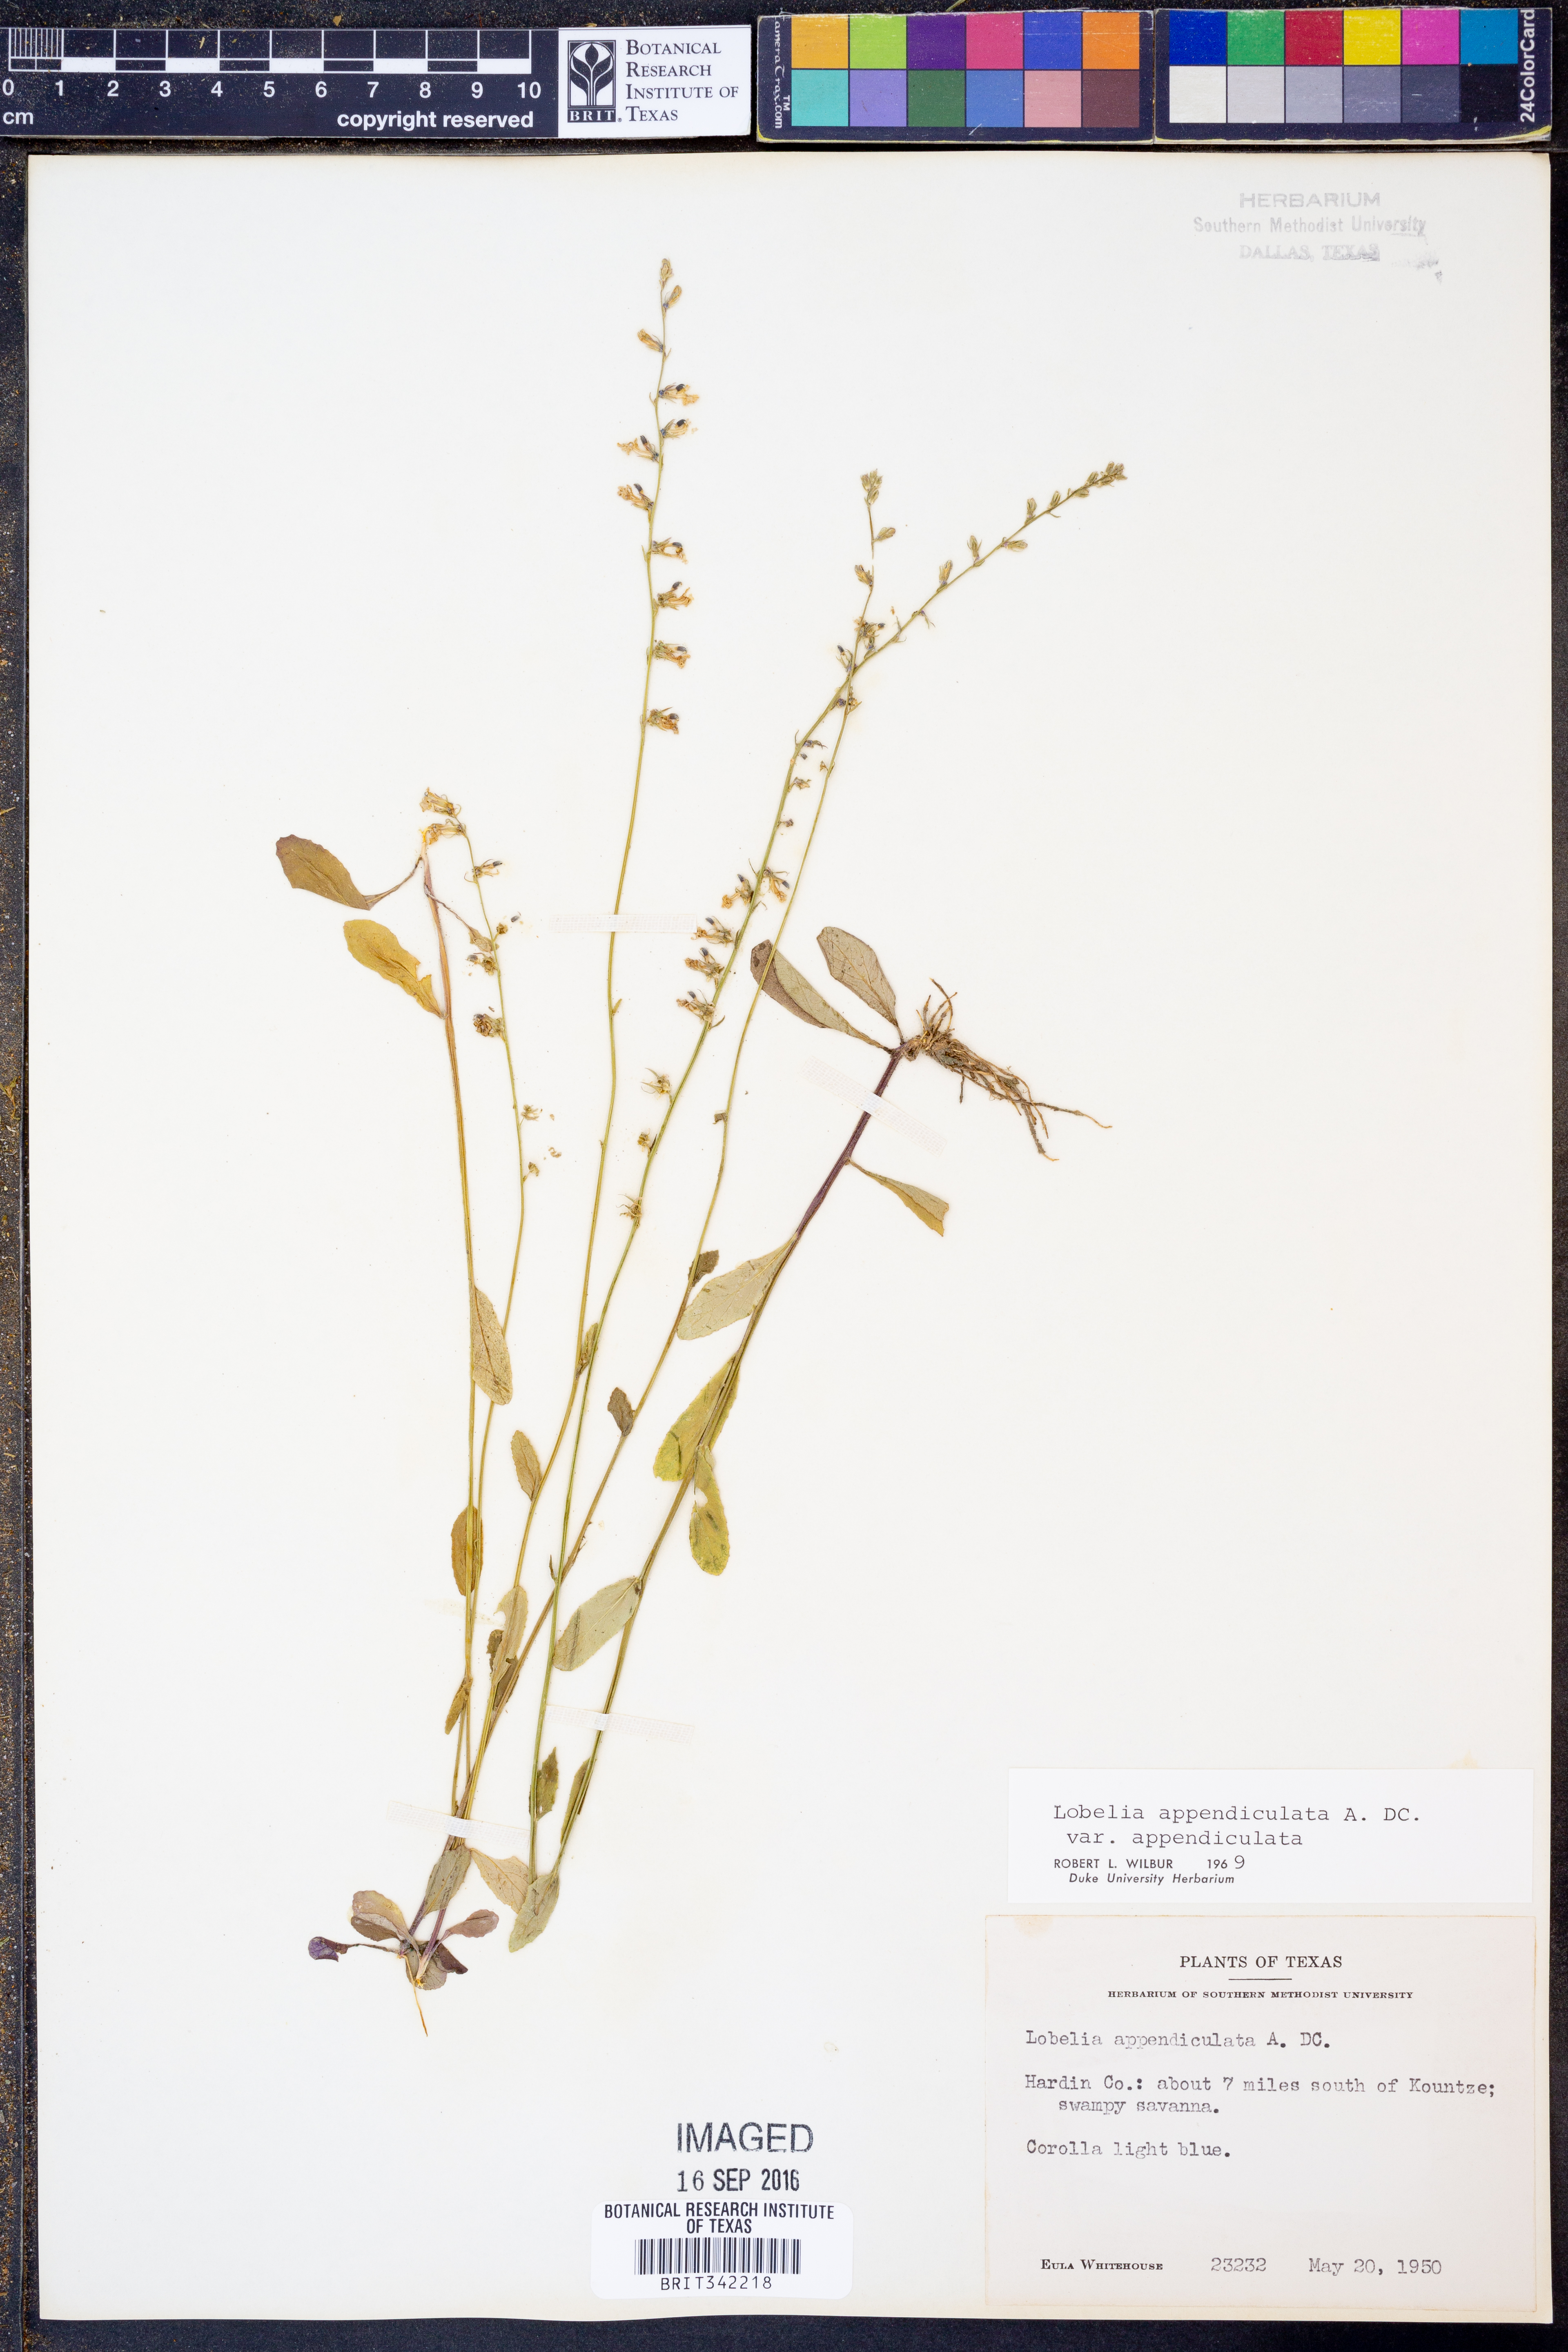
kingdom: Plantae
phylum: Tracheophyta
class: Magnoliopsida
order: Asterales
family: Campanulaceae
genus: Lobelia
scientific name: Lobelia appendiculata
